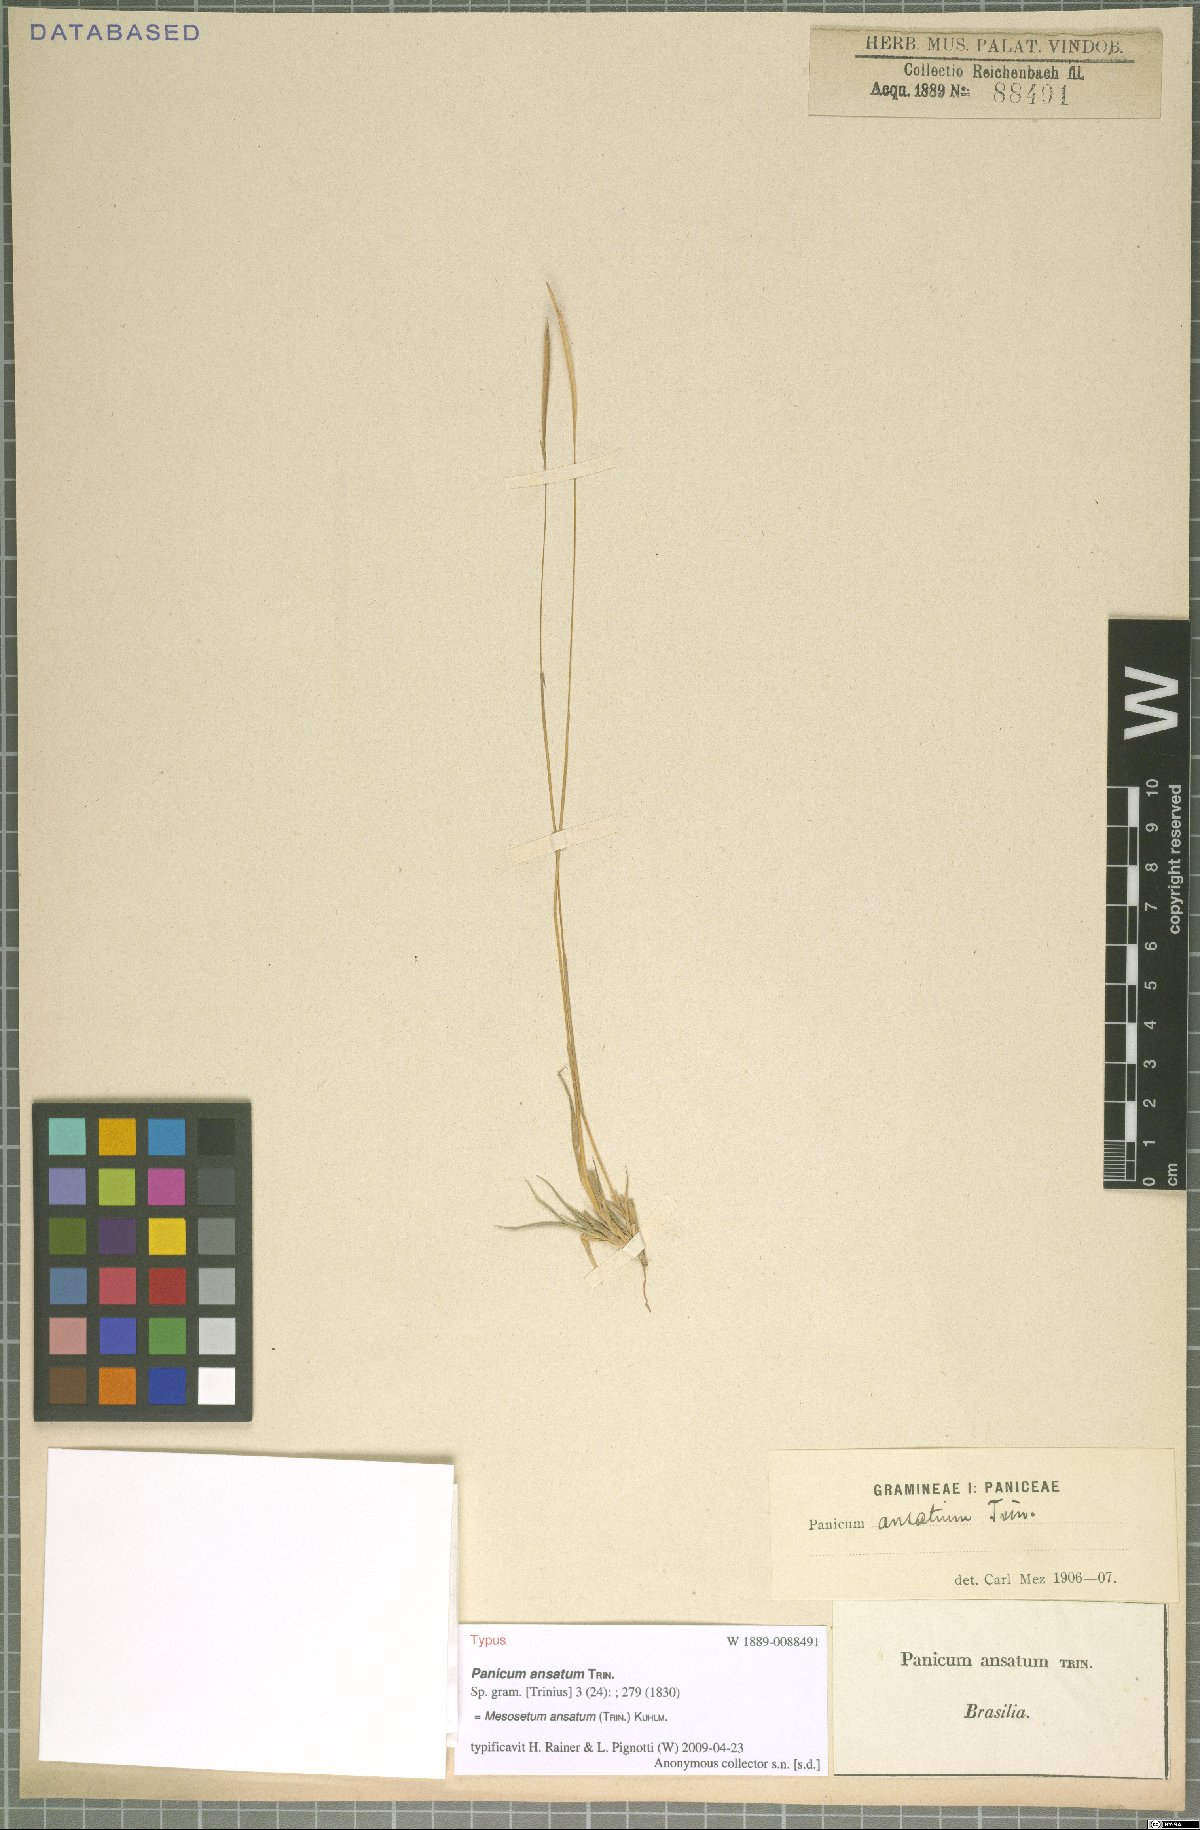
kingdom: Plantae
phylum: Tracheophyta
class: Liliopsida
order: Poales
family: Poaceae
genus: Mesosetum
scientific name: Mesosetum ansatum
